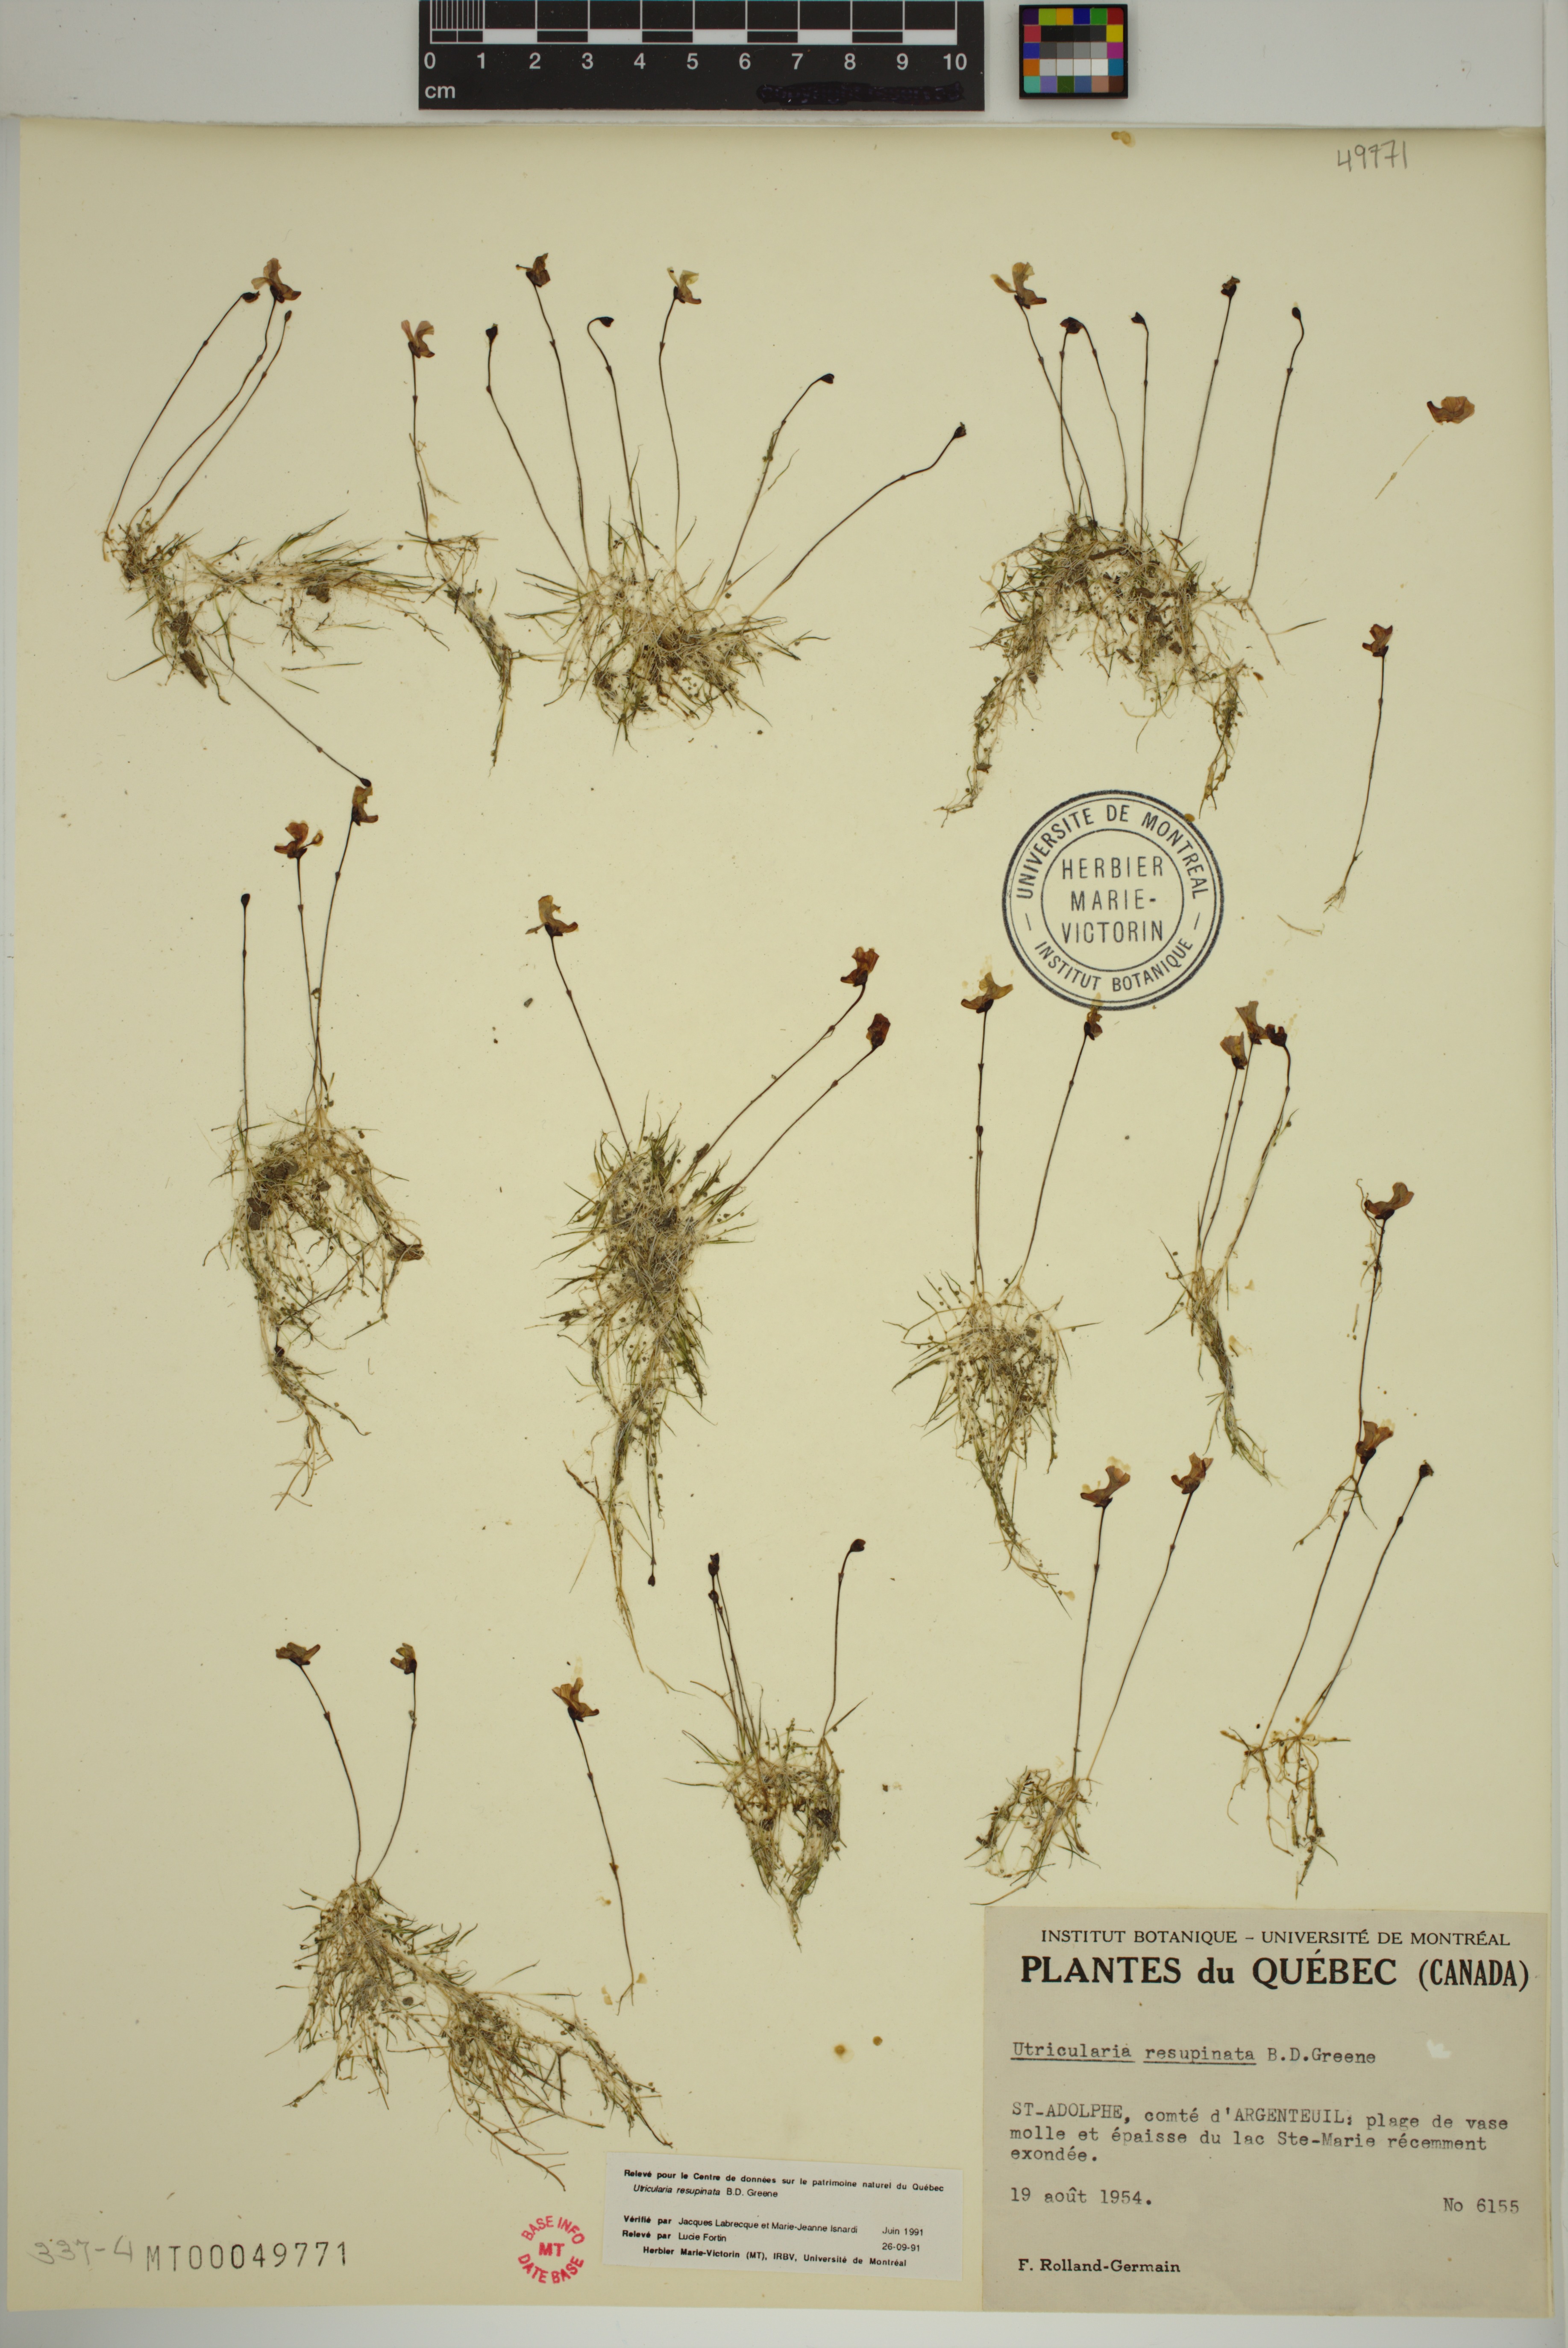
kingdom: Plantae
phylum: Tracheophyta
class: Magnoliopsida
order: Lamiales
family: Lentibulariaceae
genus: Utricularia
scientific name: Utricularia resupinata
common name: Northeastern bladderwort
